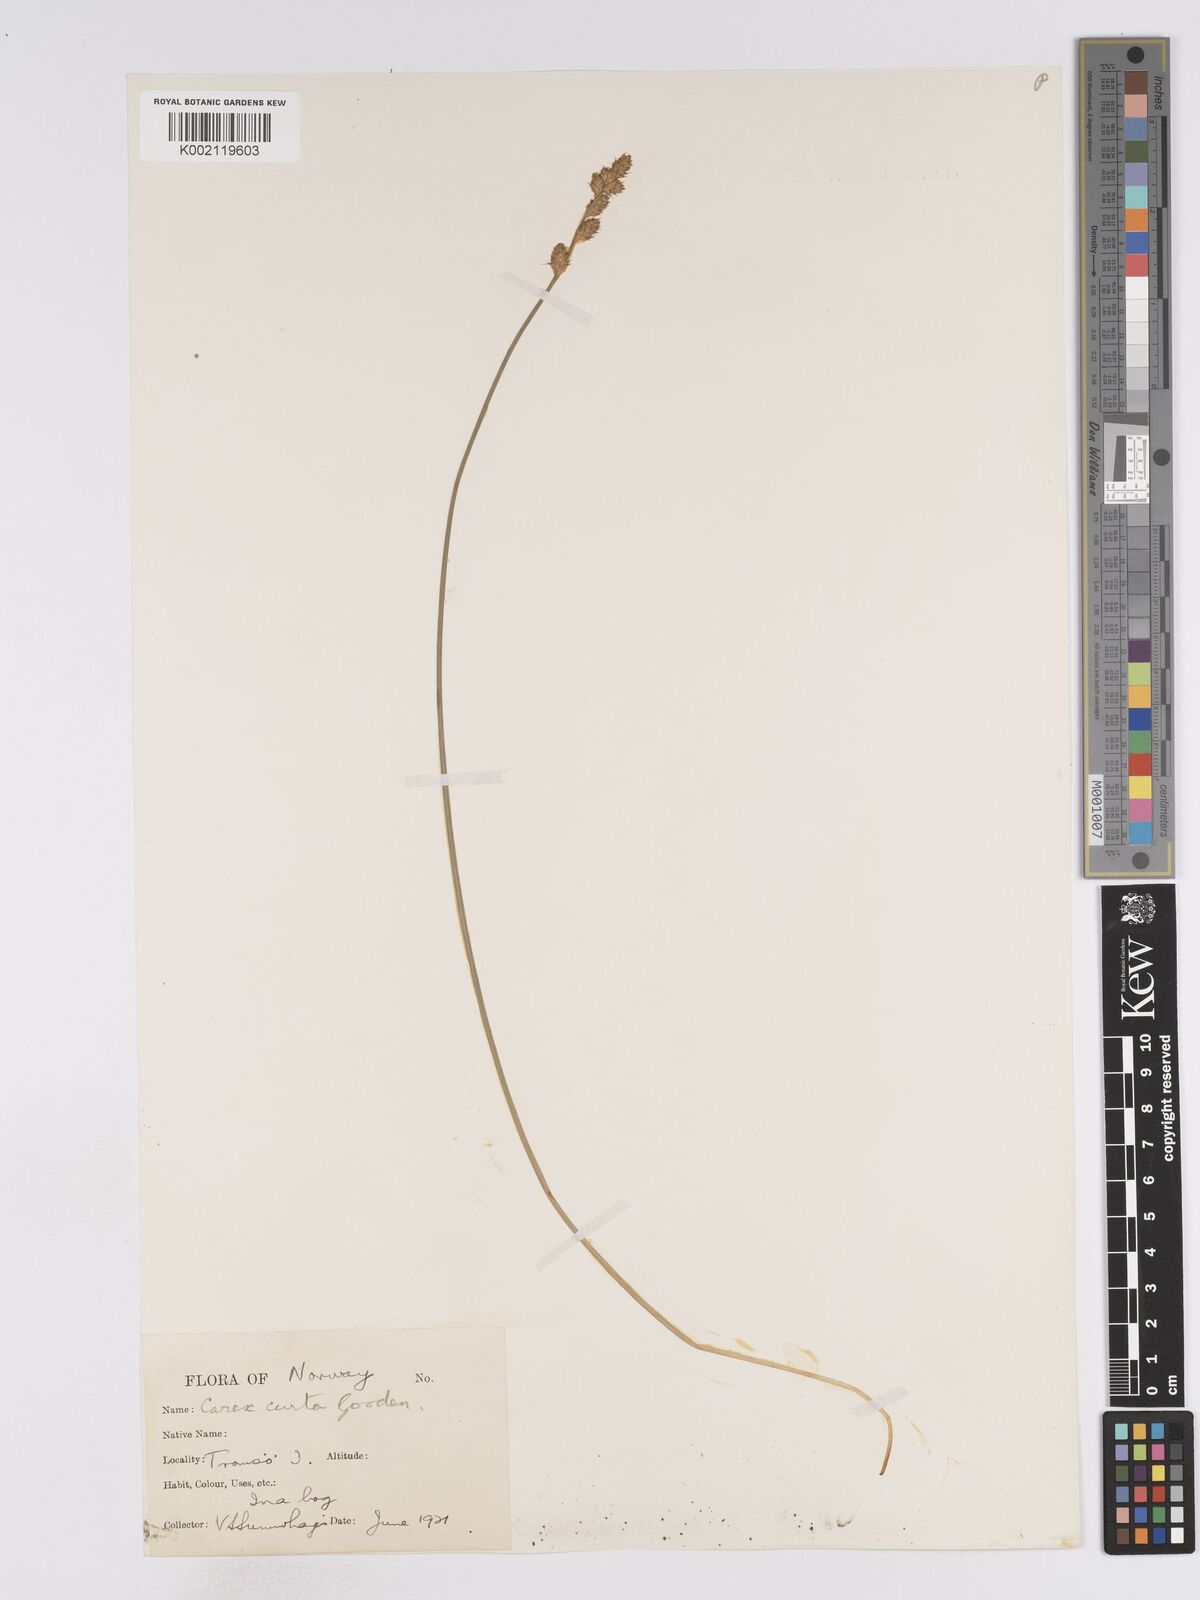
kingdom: Plantae
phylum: Tracheophyta
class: Liliopsida
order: Poales
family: Cyperaceae
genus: Carex
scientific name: Carex curta
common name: White sedge
